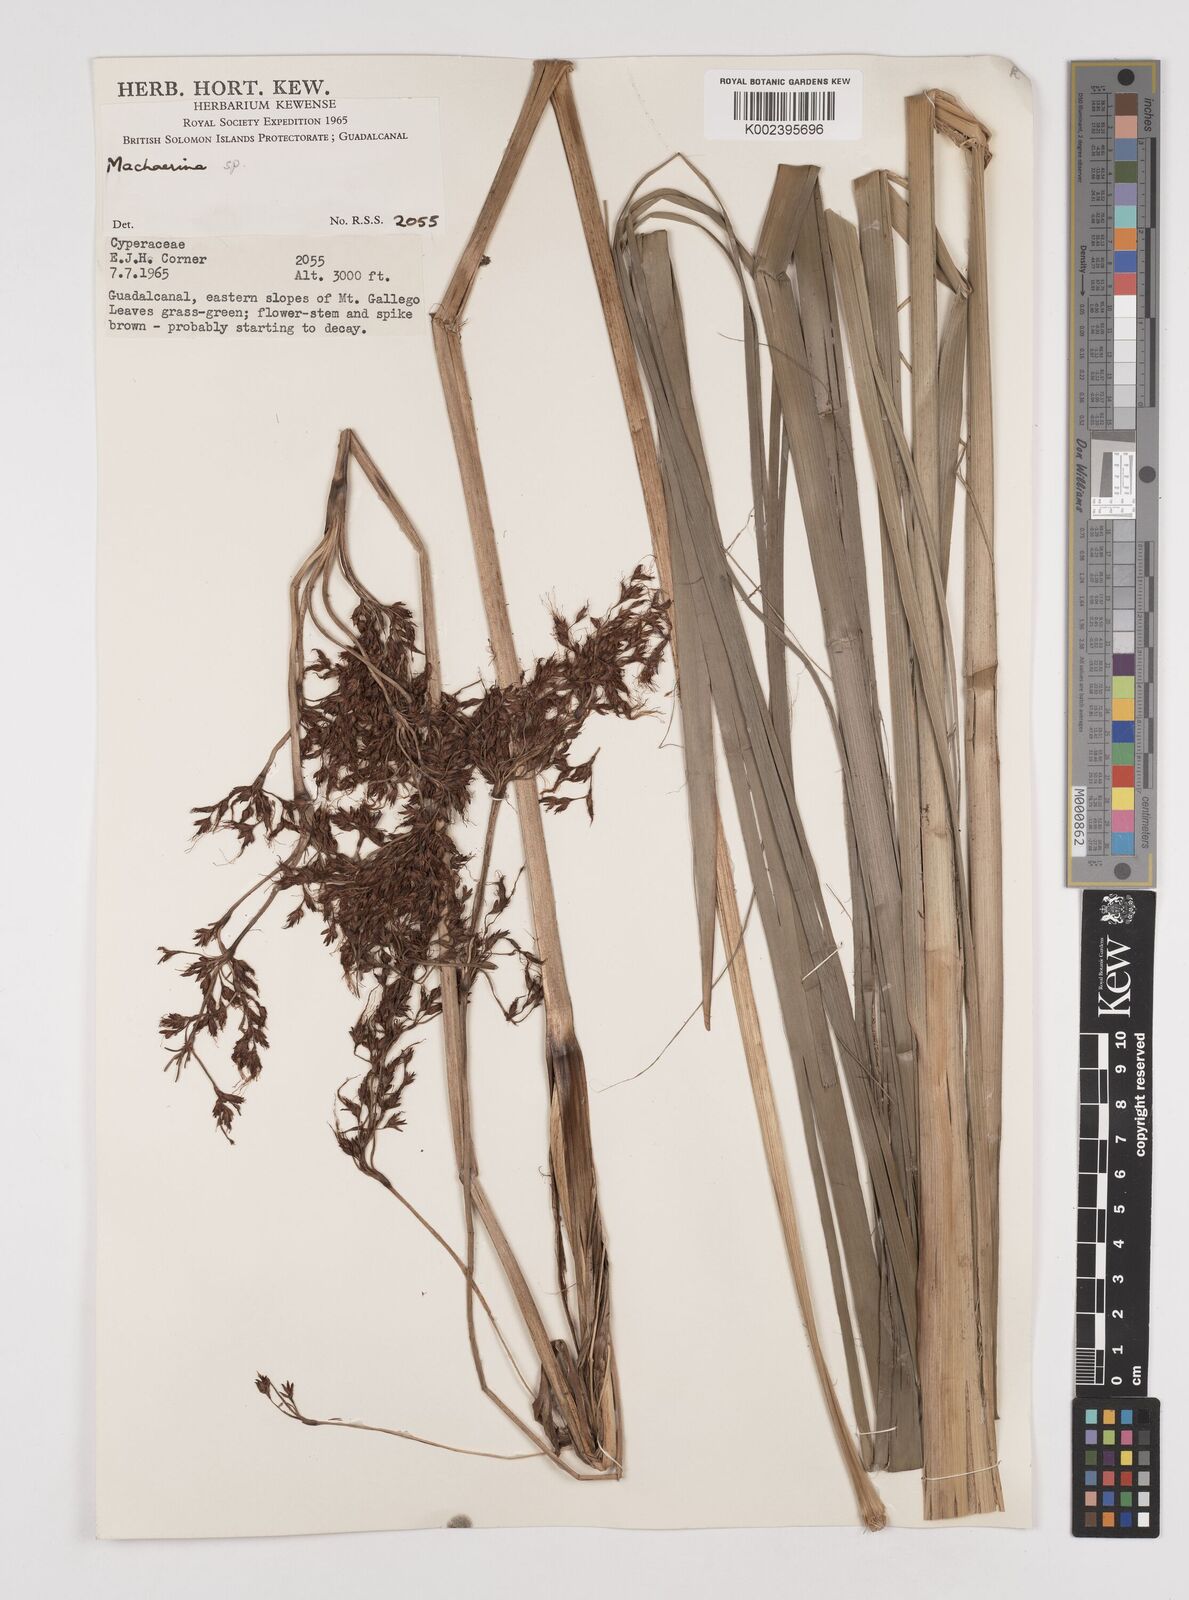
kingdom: Plantae
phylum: Tracheophyta
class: Liliopsida
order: Poales
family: Cyperaceae
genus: Machaerina
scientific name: Machaerina falcata
